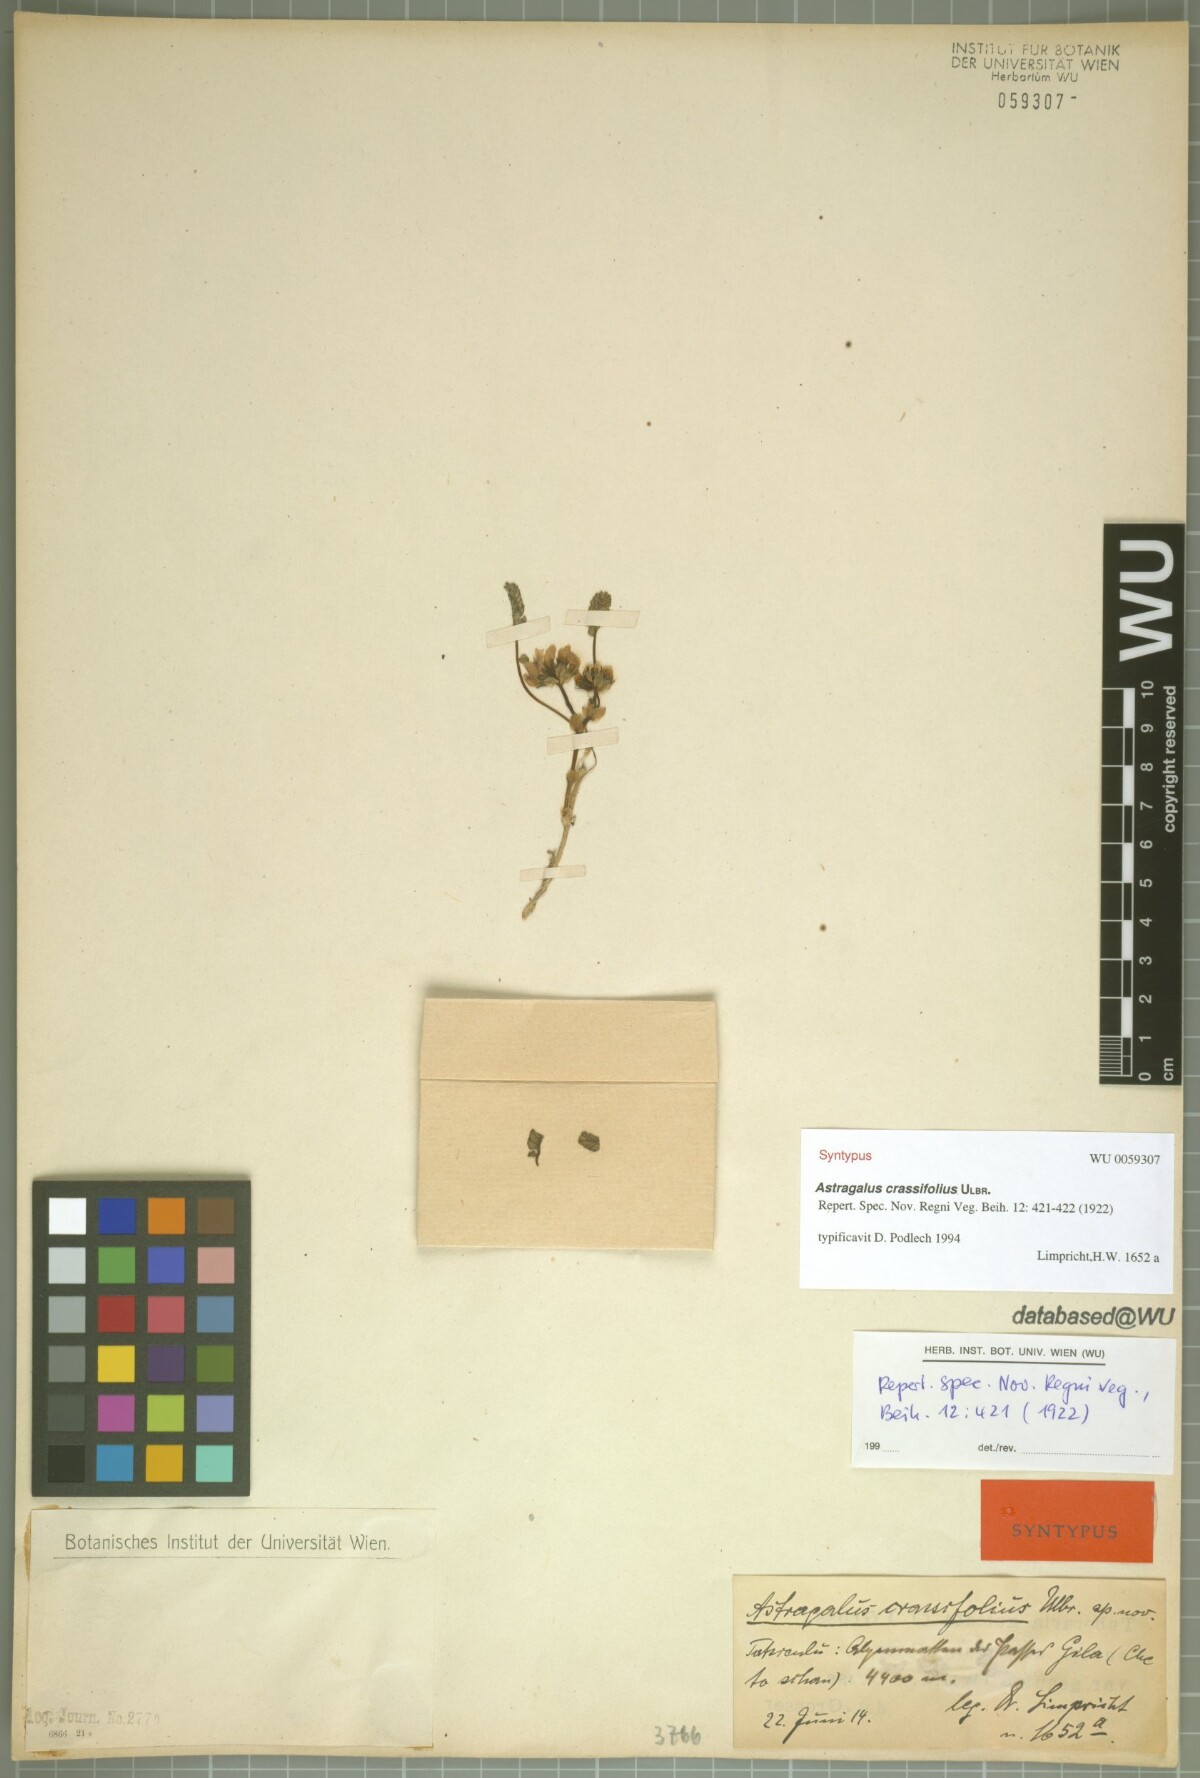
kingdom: Plantae
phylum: Tracheophyta
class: Magnoliopsida
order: Fabales
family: Fabaceae
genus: Astragalus
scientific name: Astragalus crassifolius
